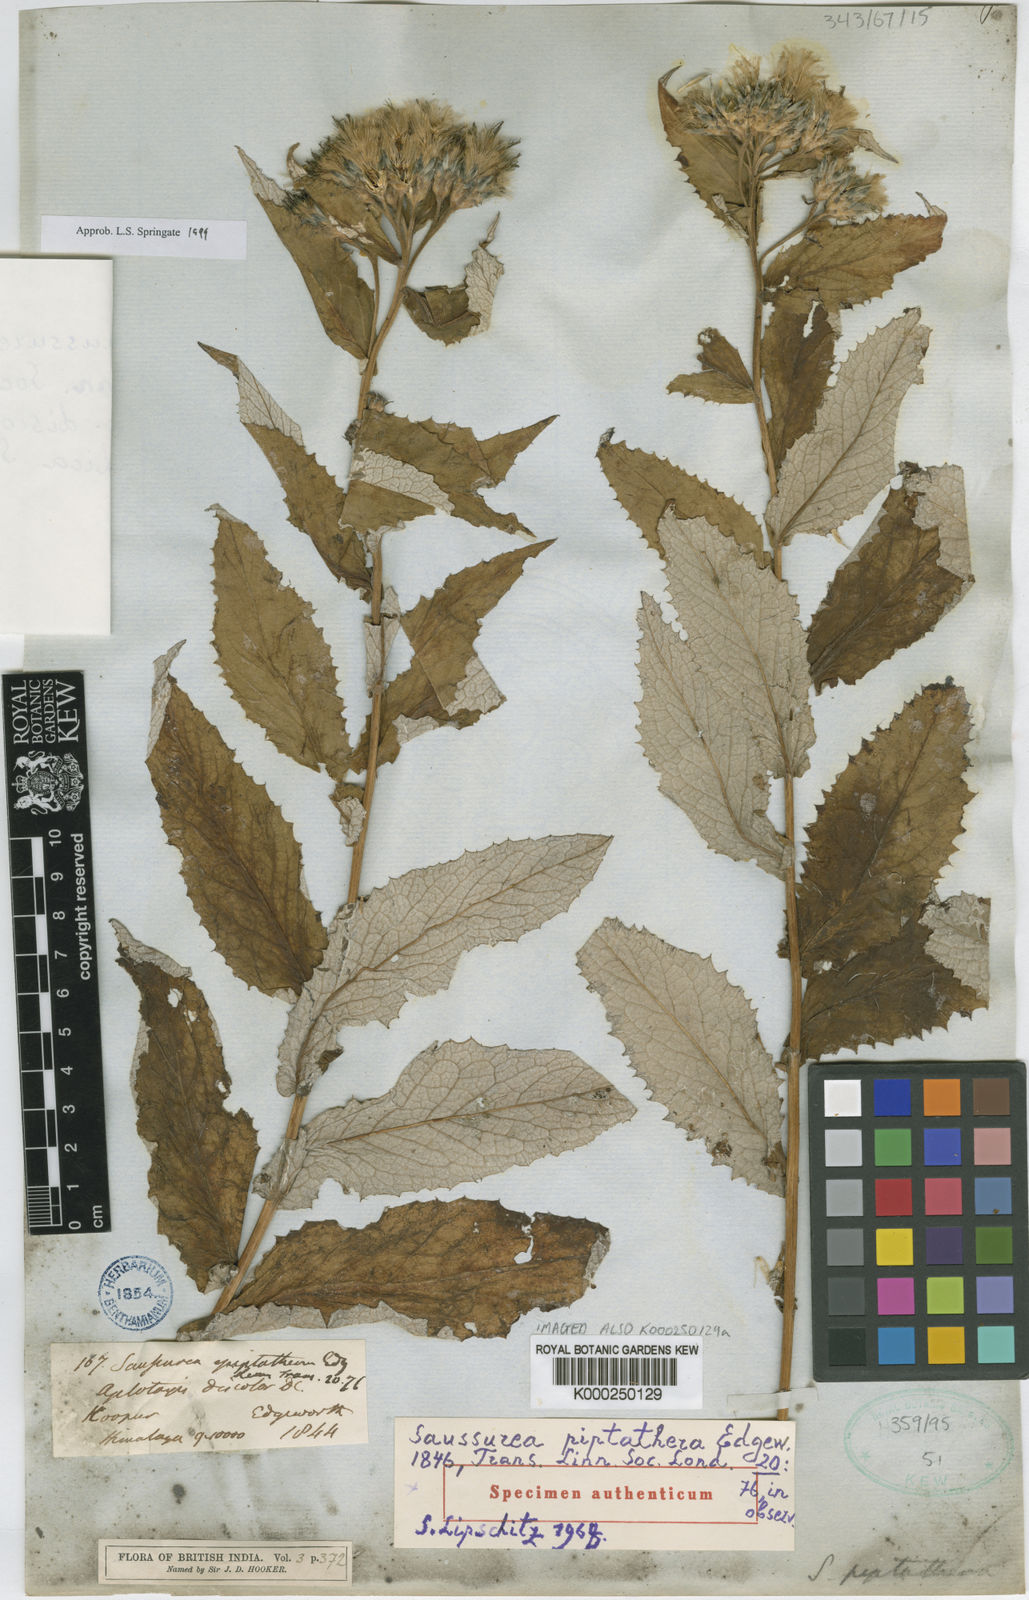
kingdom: Plantae
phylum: Tracheophyta
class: Magnoliopsida
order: Asterales
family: Asteraceae
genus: Saussurea
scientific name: Saussurea piptathera
